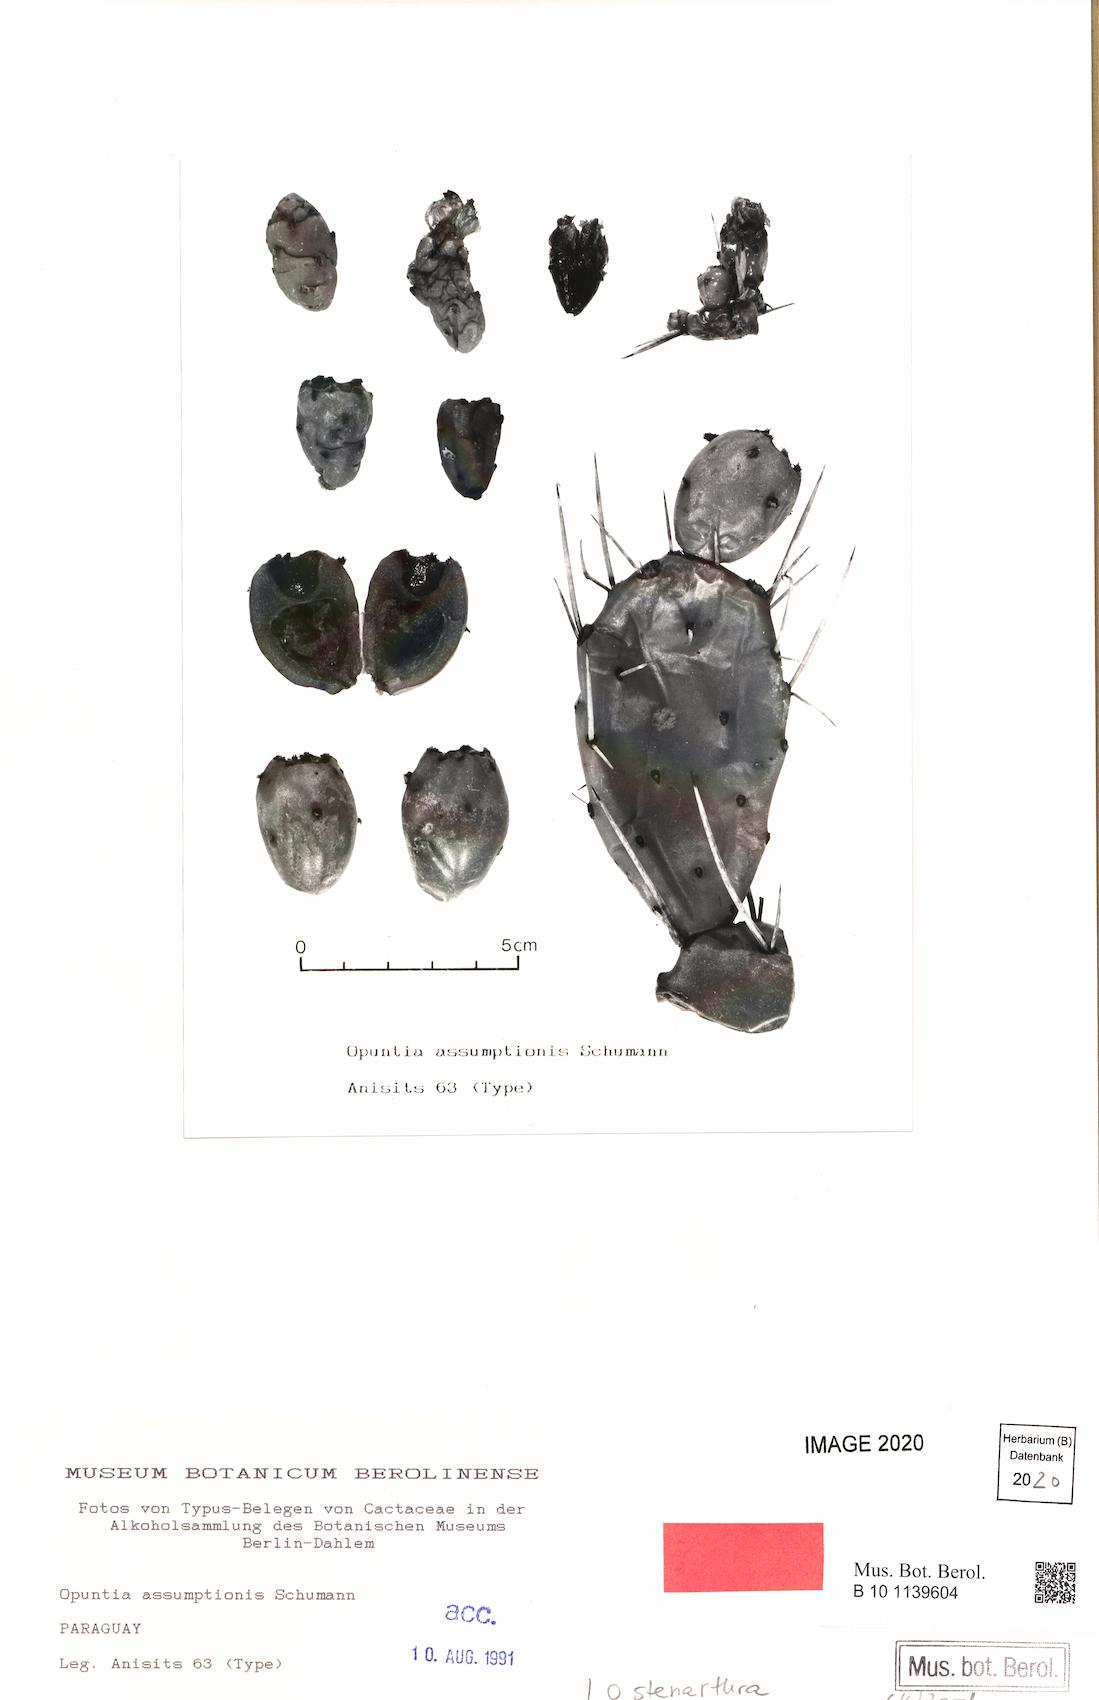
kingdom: Plantae
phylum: Tracheophyta
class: Magnoliopsida
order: Caryophyllales
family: Cactaceae
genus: Opuntia
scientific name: Opuntia stenarthra
